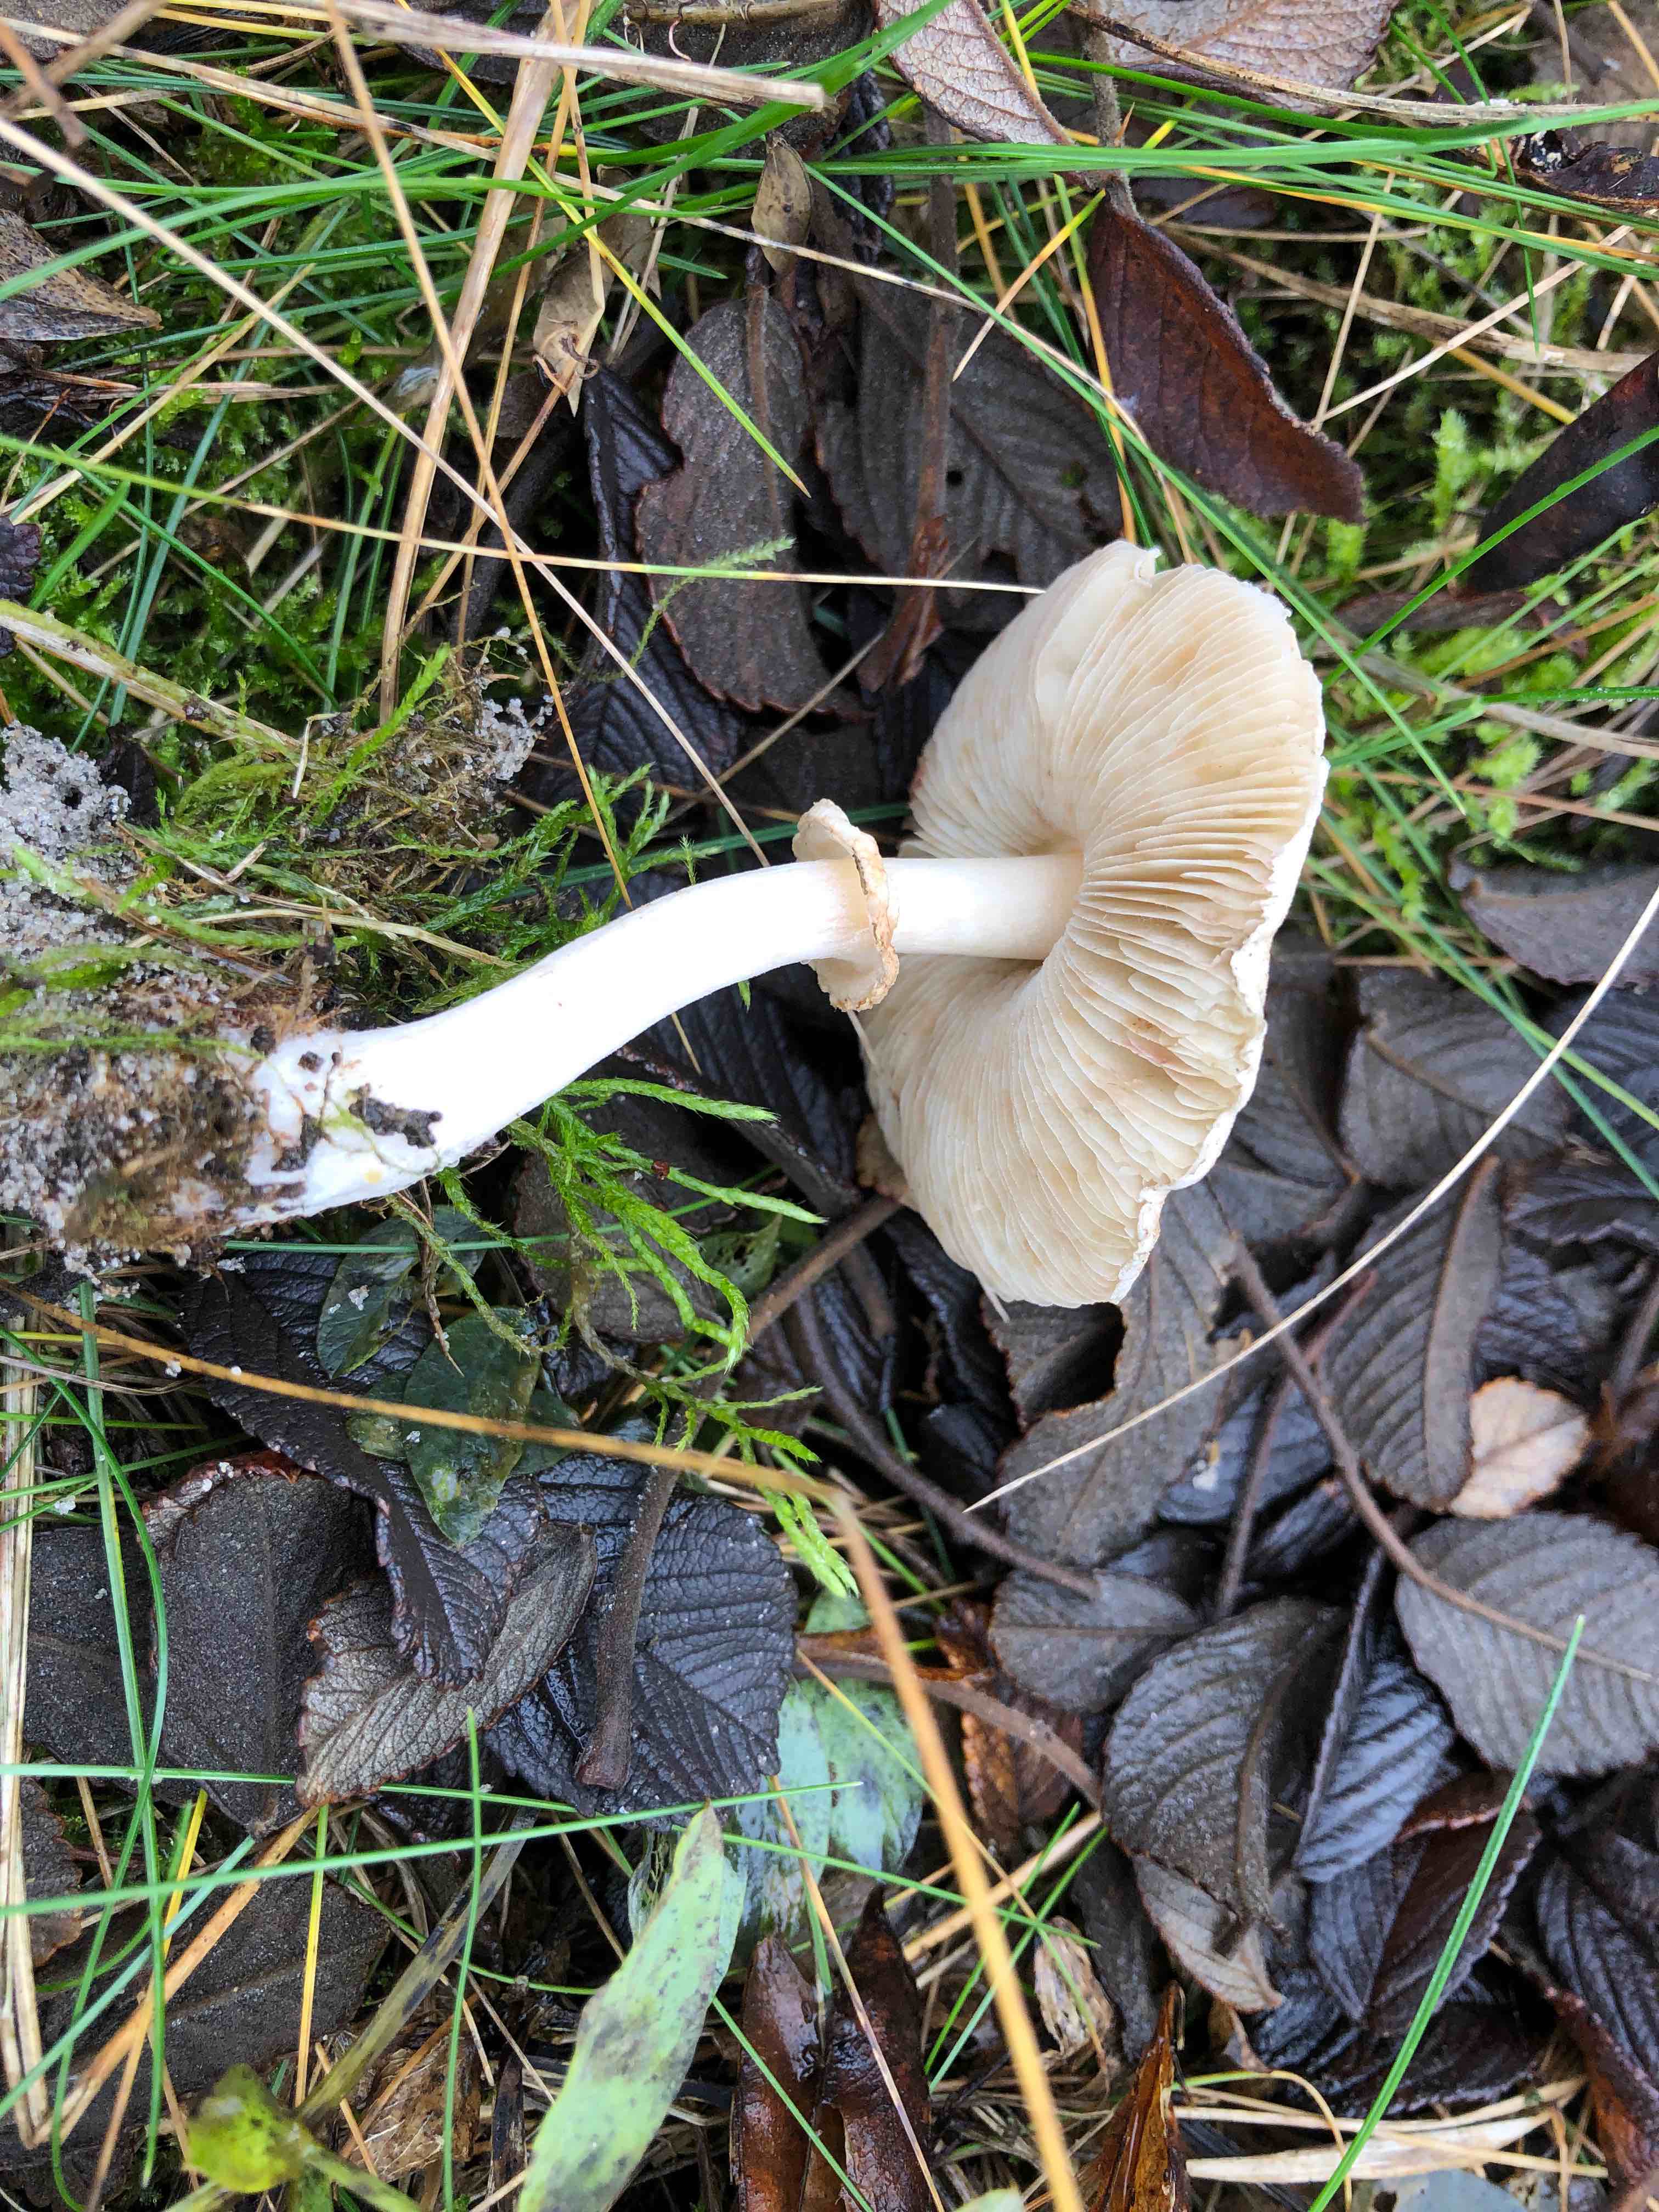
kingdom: Fungi
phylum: Basidiomycota
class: Agaricomycetes
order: Agaricales
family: Agaricaceae
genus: Leucoagaricus
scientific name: Leucoagaricus leucothites
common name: rosabladet silkehat
